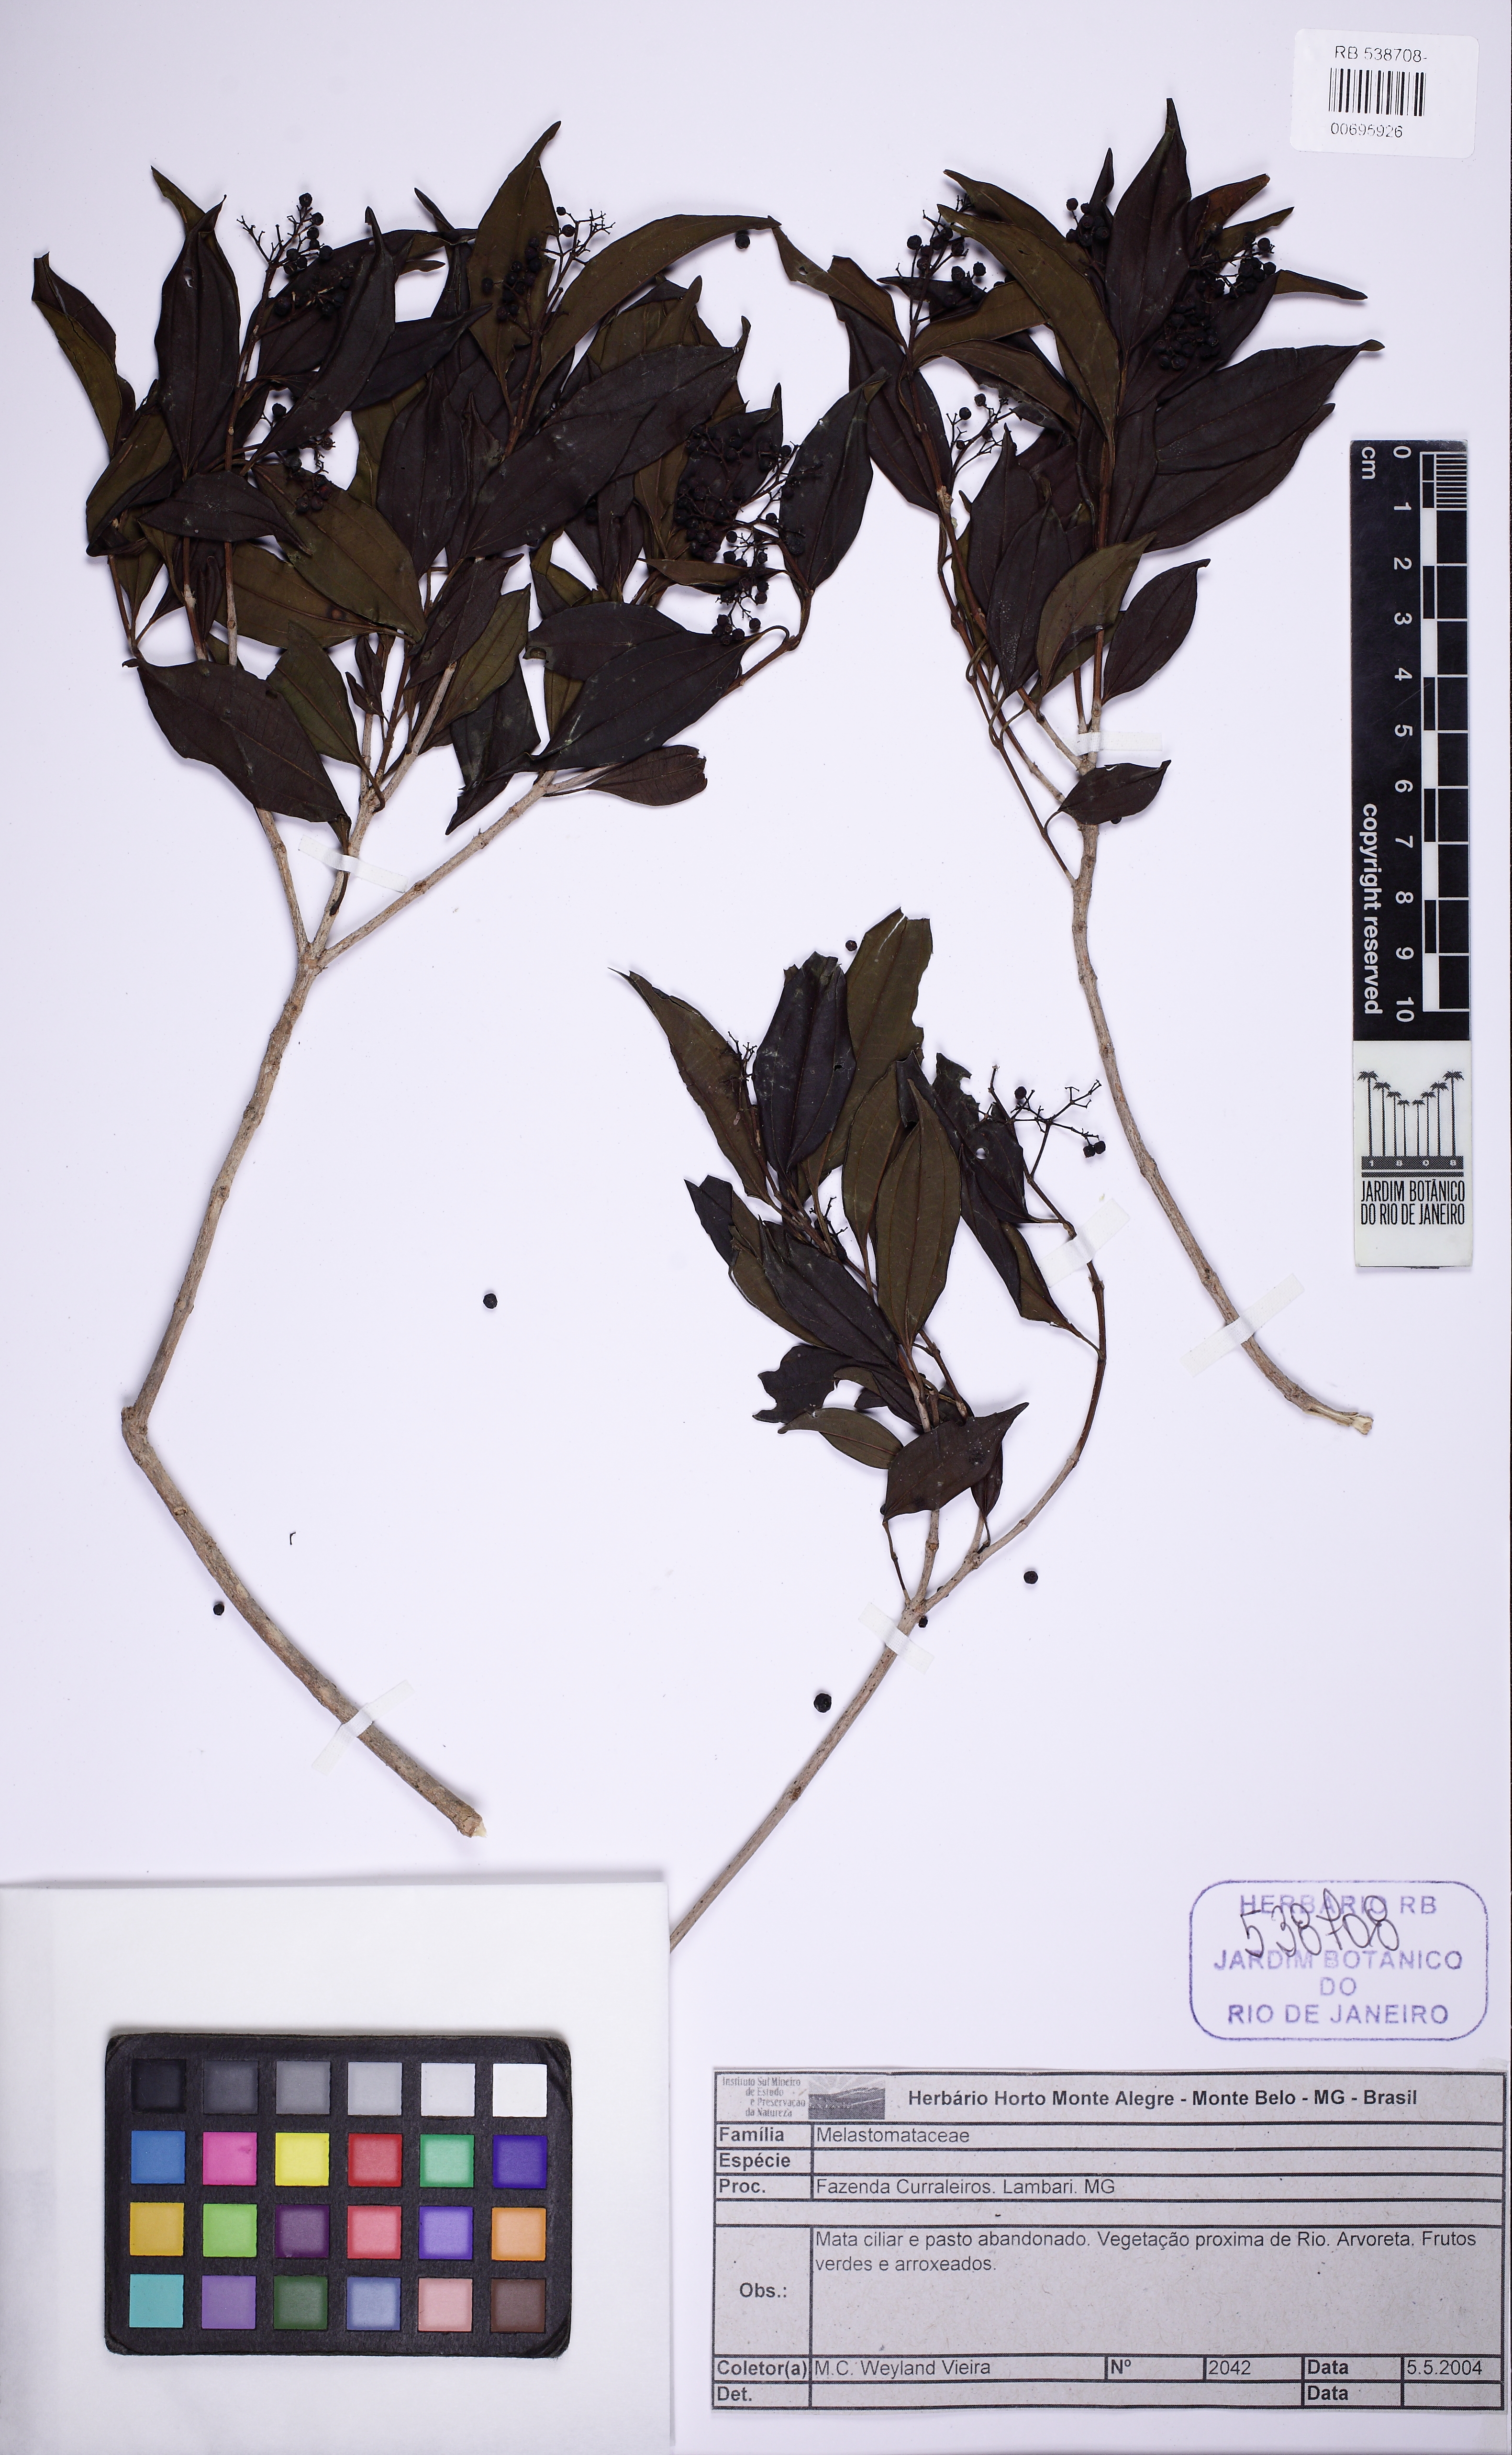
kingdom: Plantae
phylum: Tracheophyta
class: Magnoliopsida
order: Myrtales
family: Melastomataceae
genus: Miconia
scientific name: Miconia ligustroides
